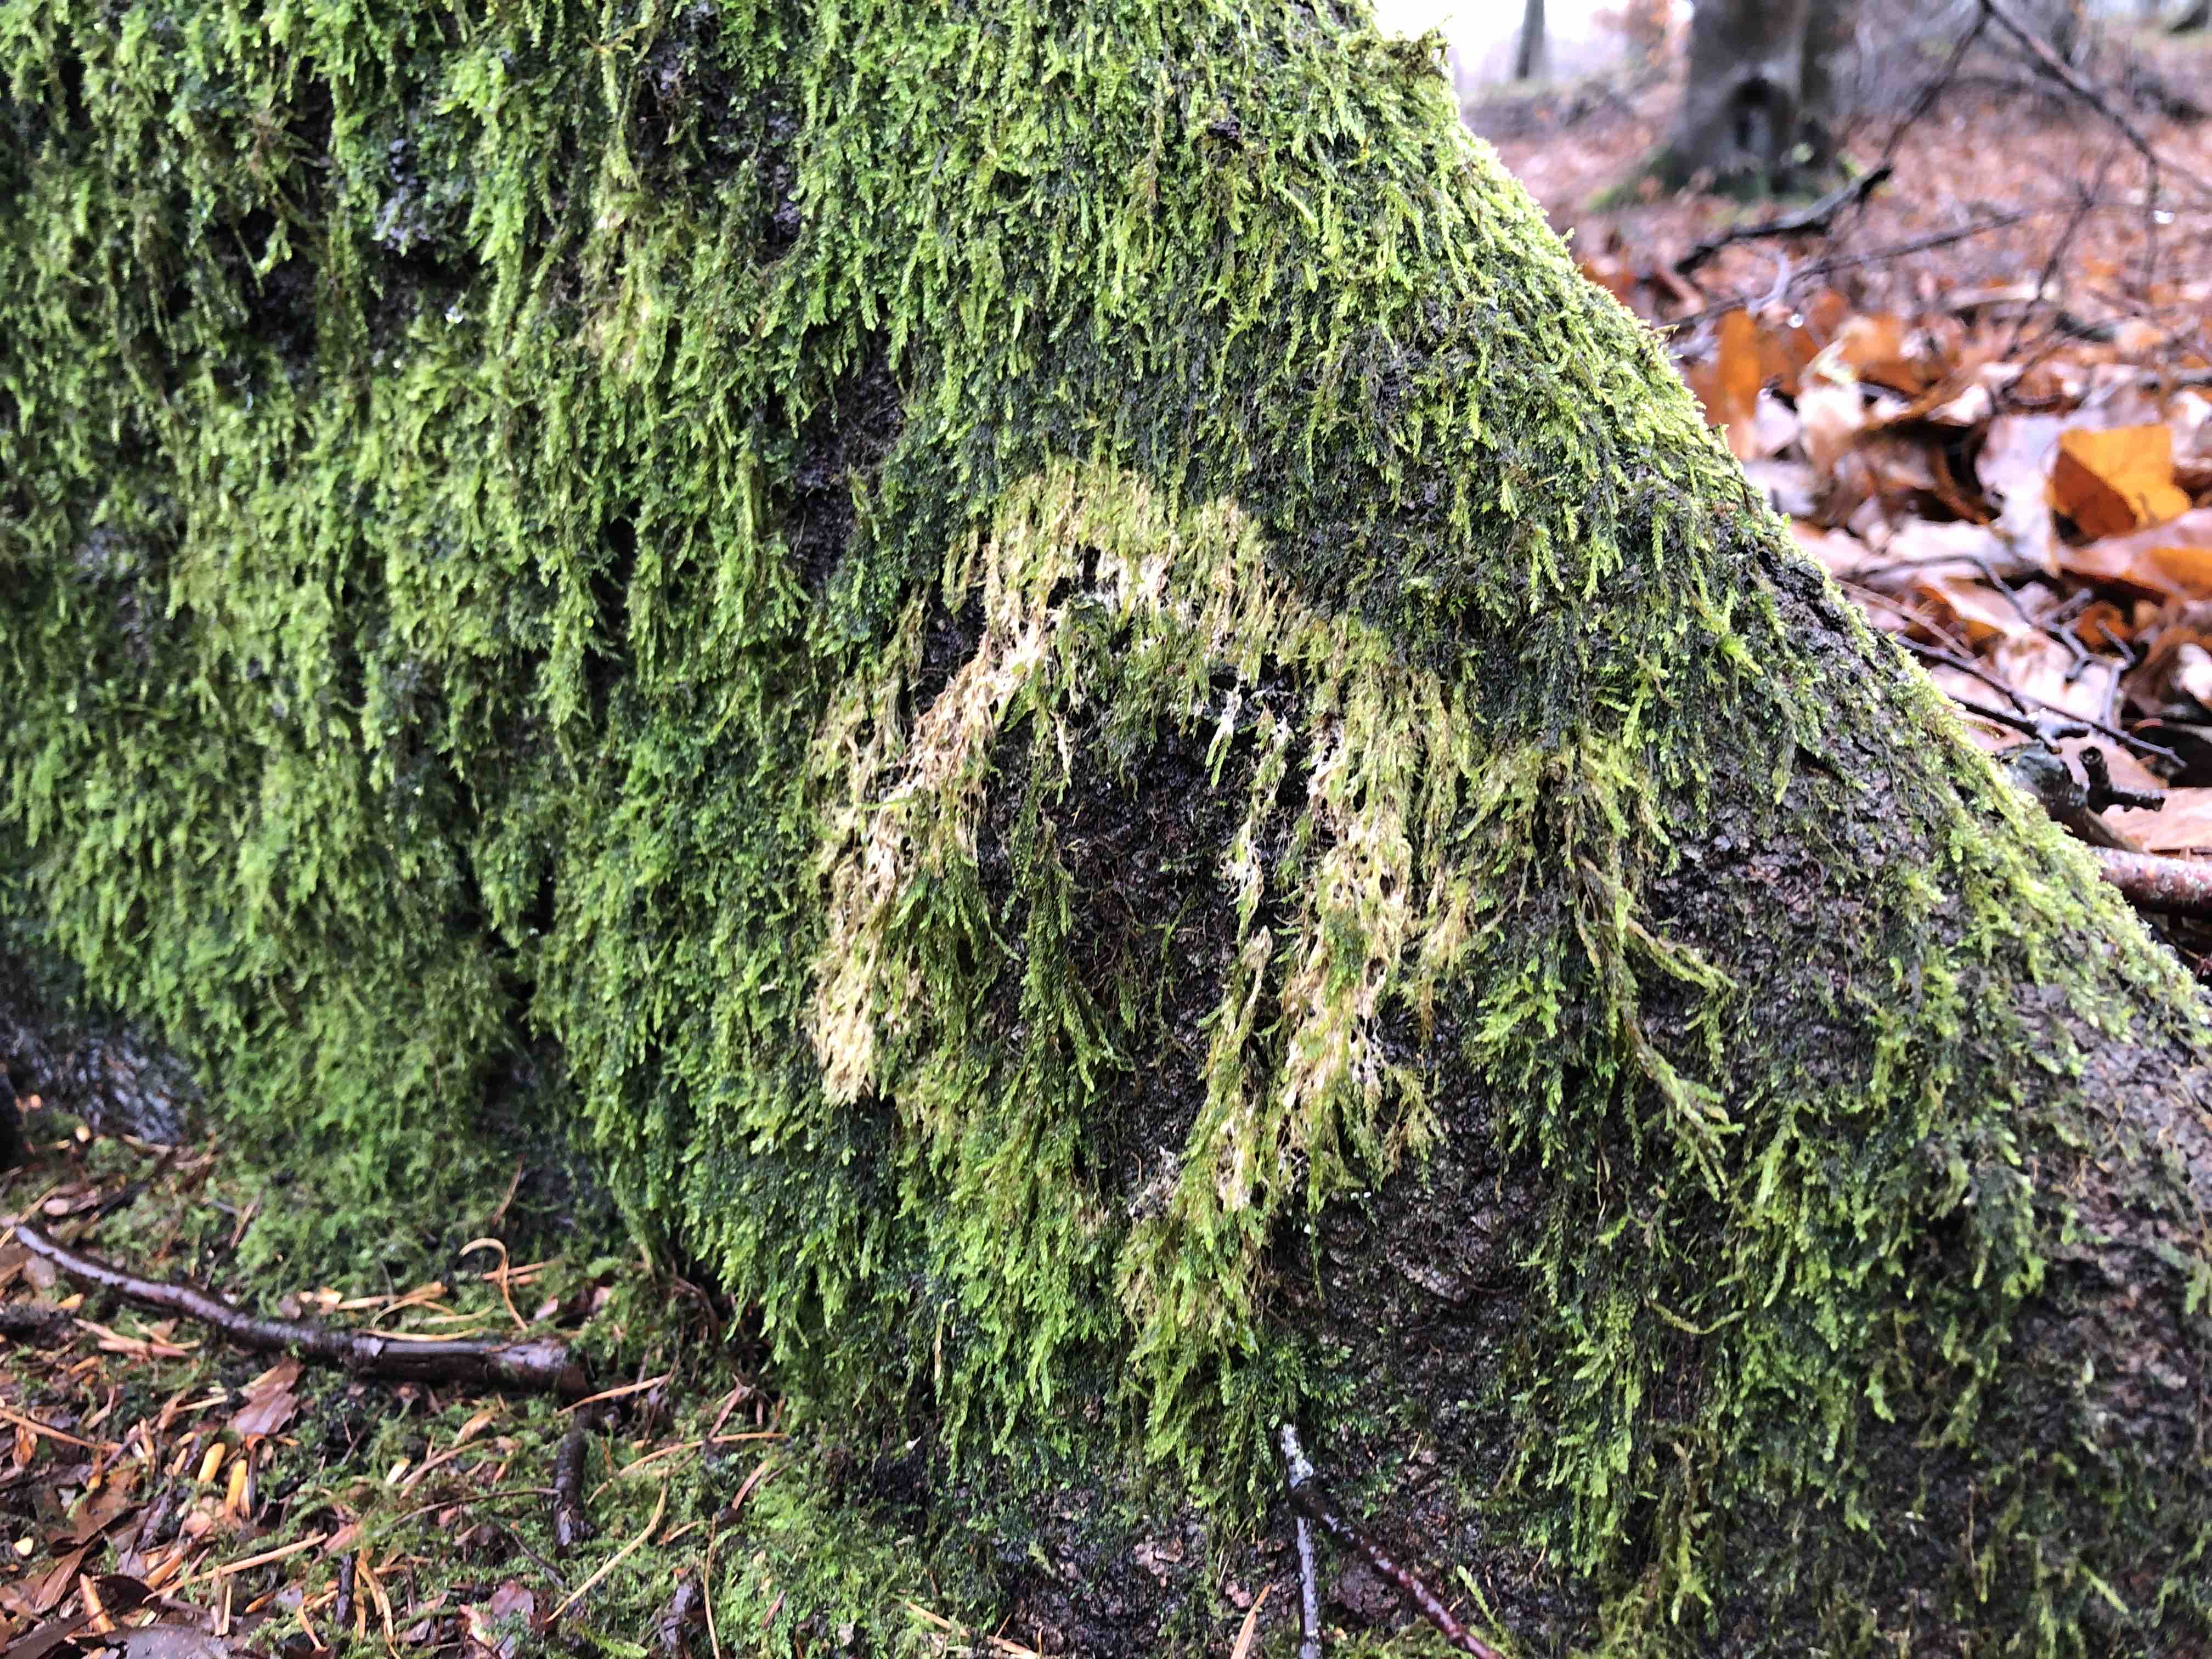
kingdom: Fungi
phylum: Basidiomycota
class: Agaricomycetes
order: Agaricales
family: Chromocyphellaceae
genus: Chromocyphella
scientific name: Chromocyphella muscicola
